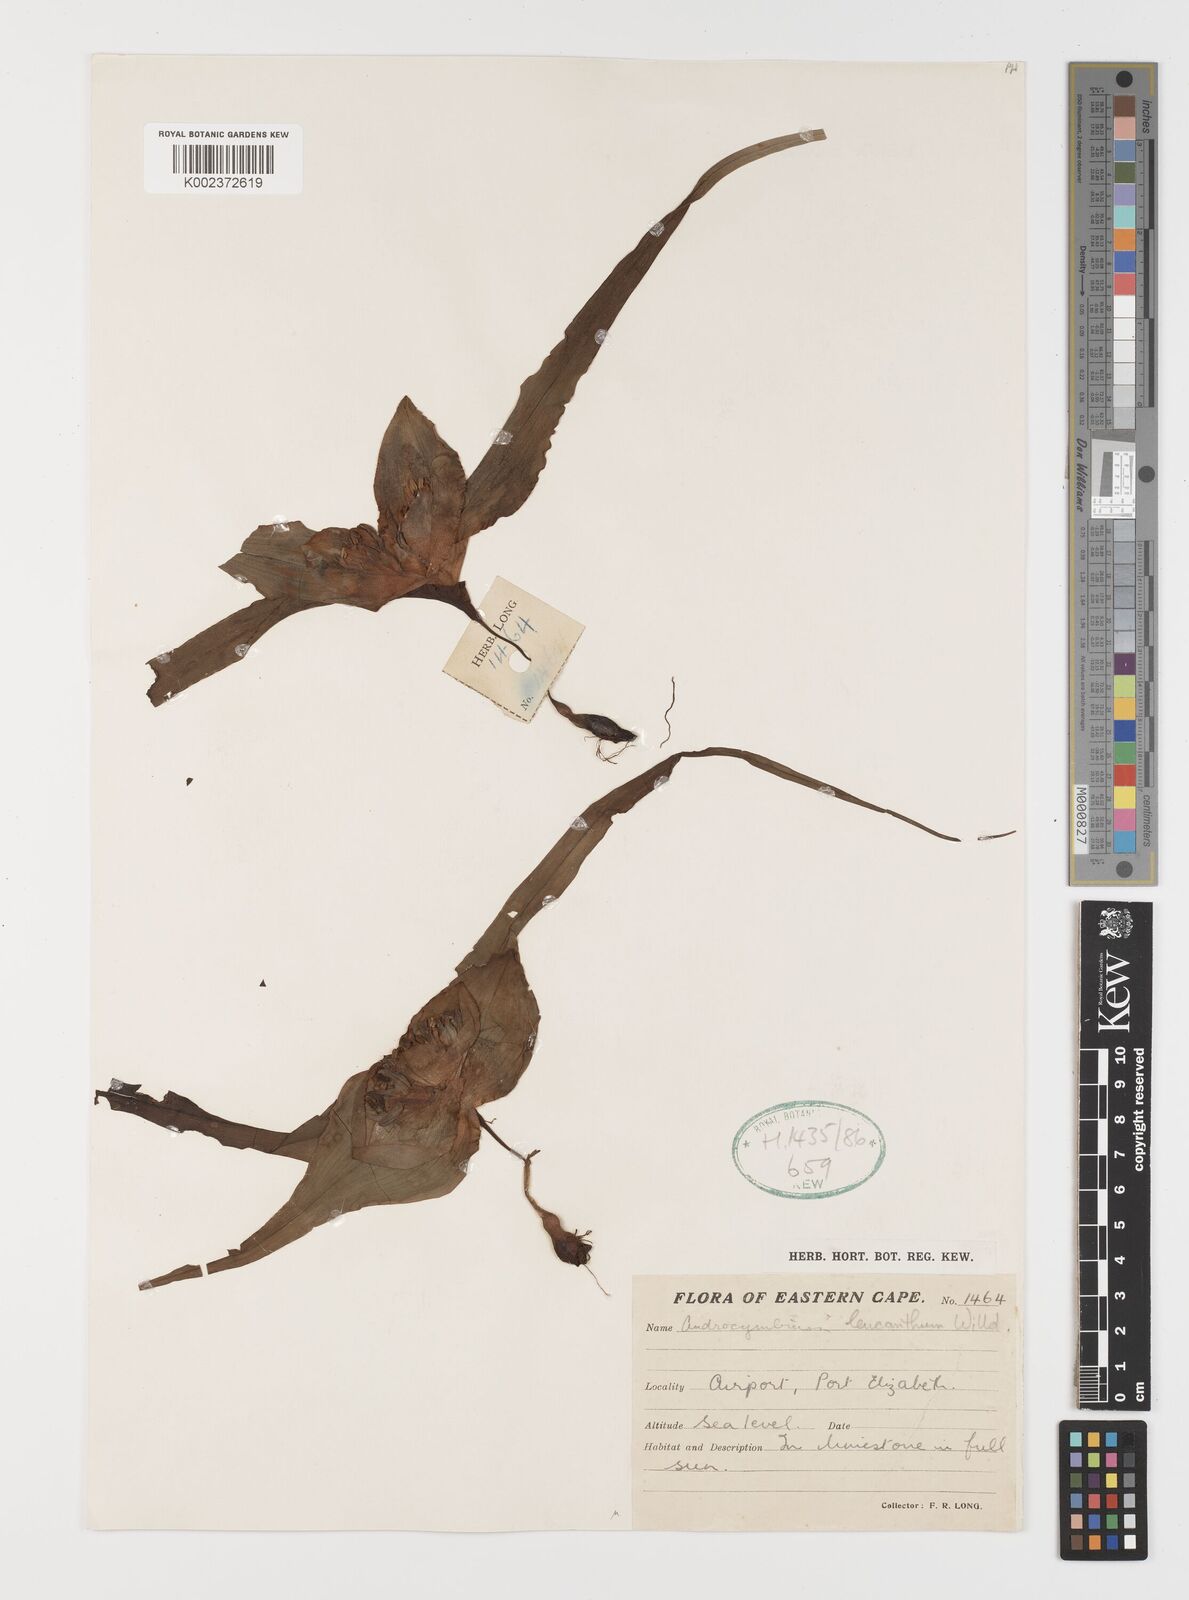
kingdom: Plantae
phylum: Tracheophyta
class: Liliopsida
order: Liliales
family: Colchicaceae
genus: Colchicum
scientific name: Colchicum capense
